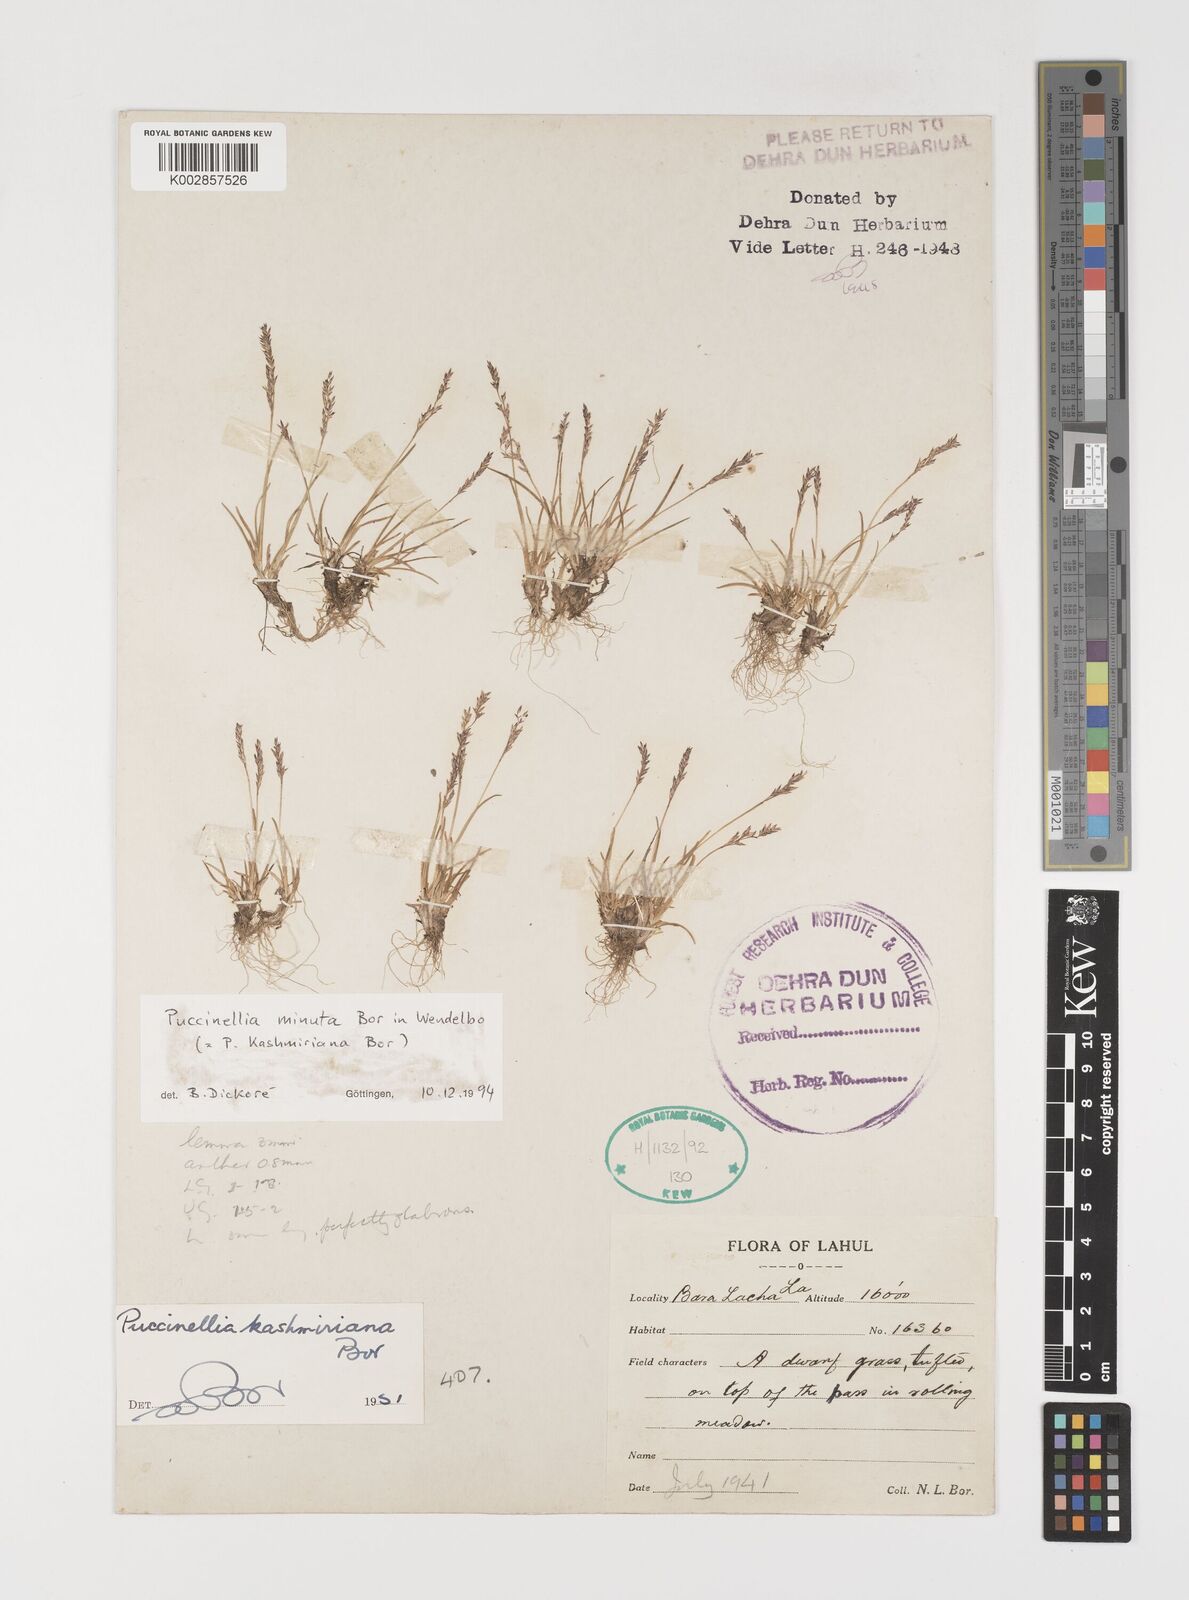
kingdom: Plantae
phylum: Tracheophyta
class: Liliopsida
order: Poales
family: Poaceae
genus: Puccinellia
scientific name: Puccinellia minuta
